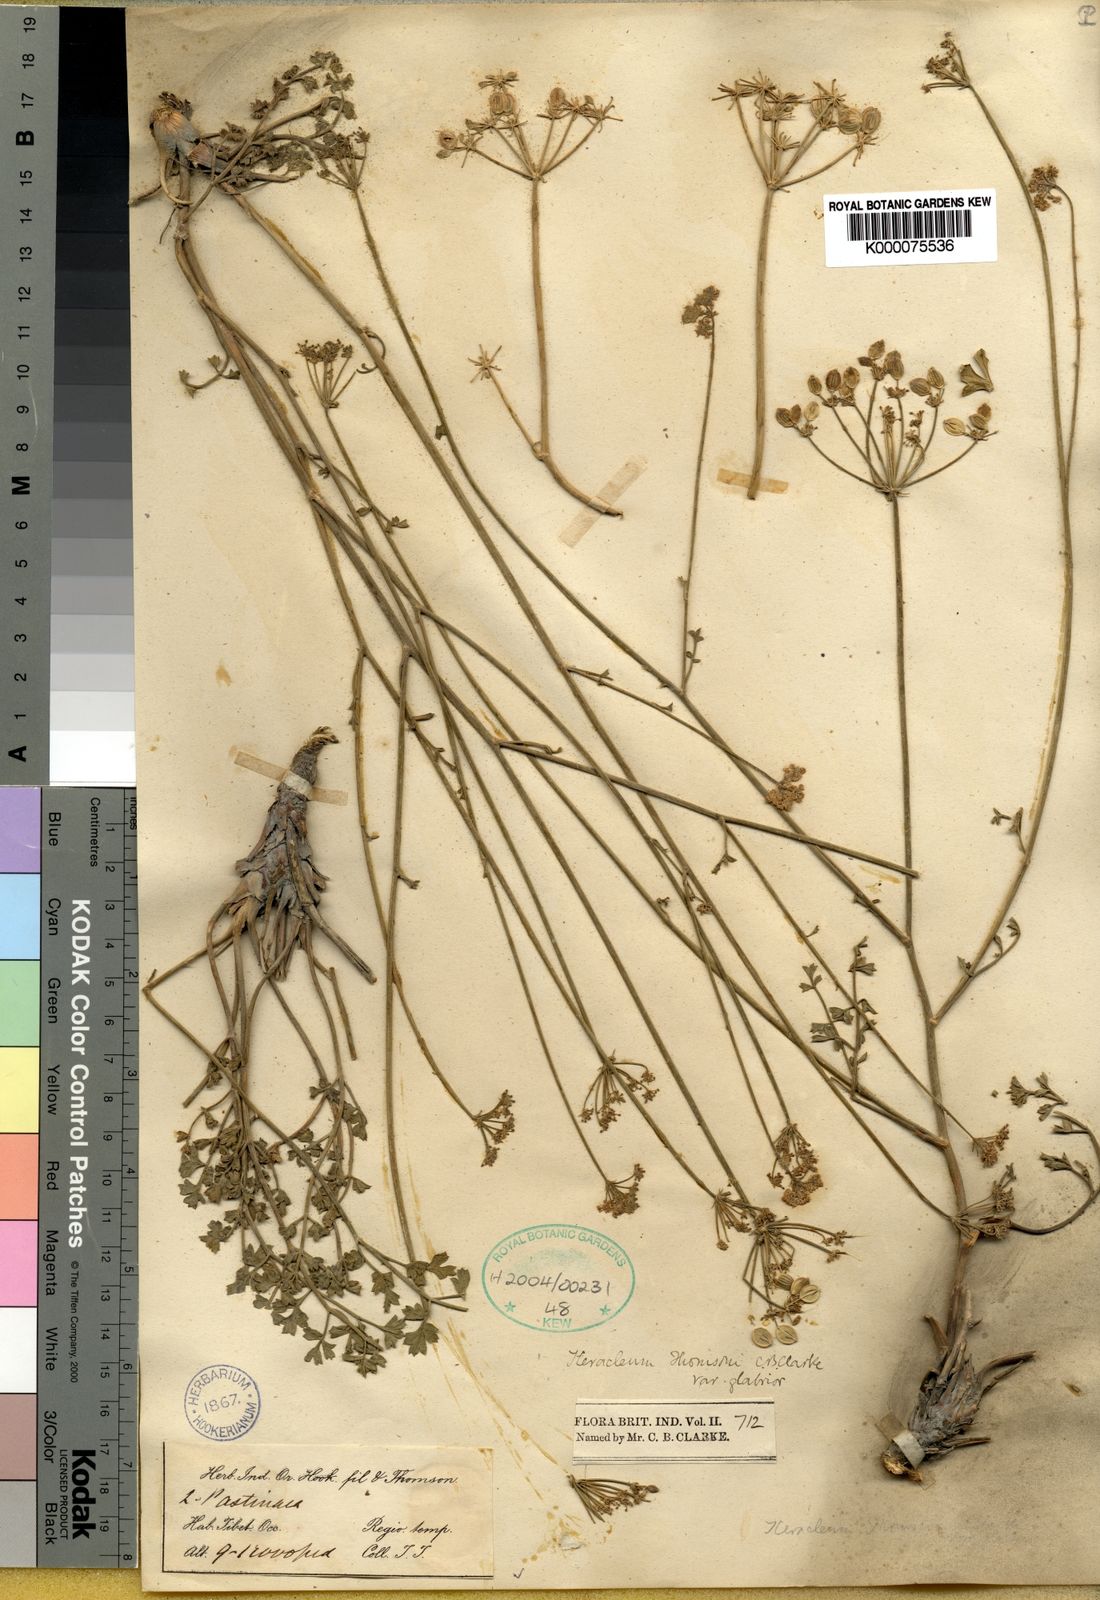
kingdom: Plantae
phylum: Tracheophyta
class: Magnoliopsida
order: Apiales
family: Apiaceae
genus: Semenovia
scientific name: Semenovia thomsonii
